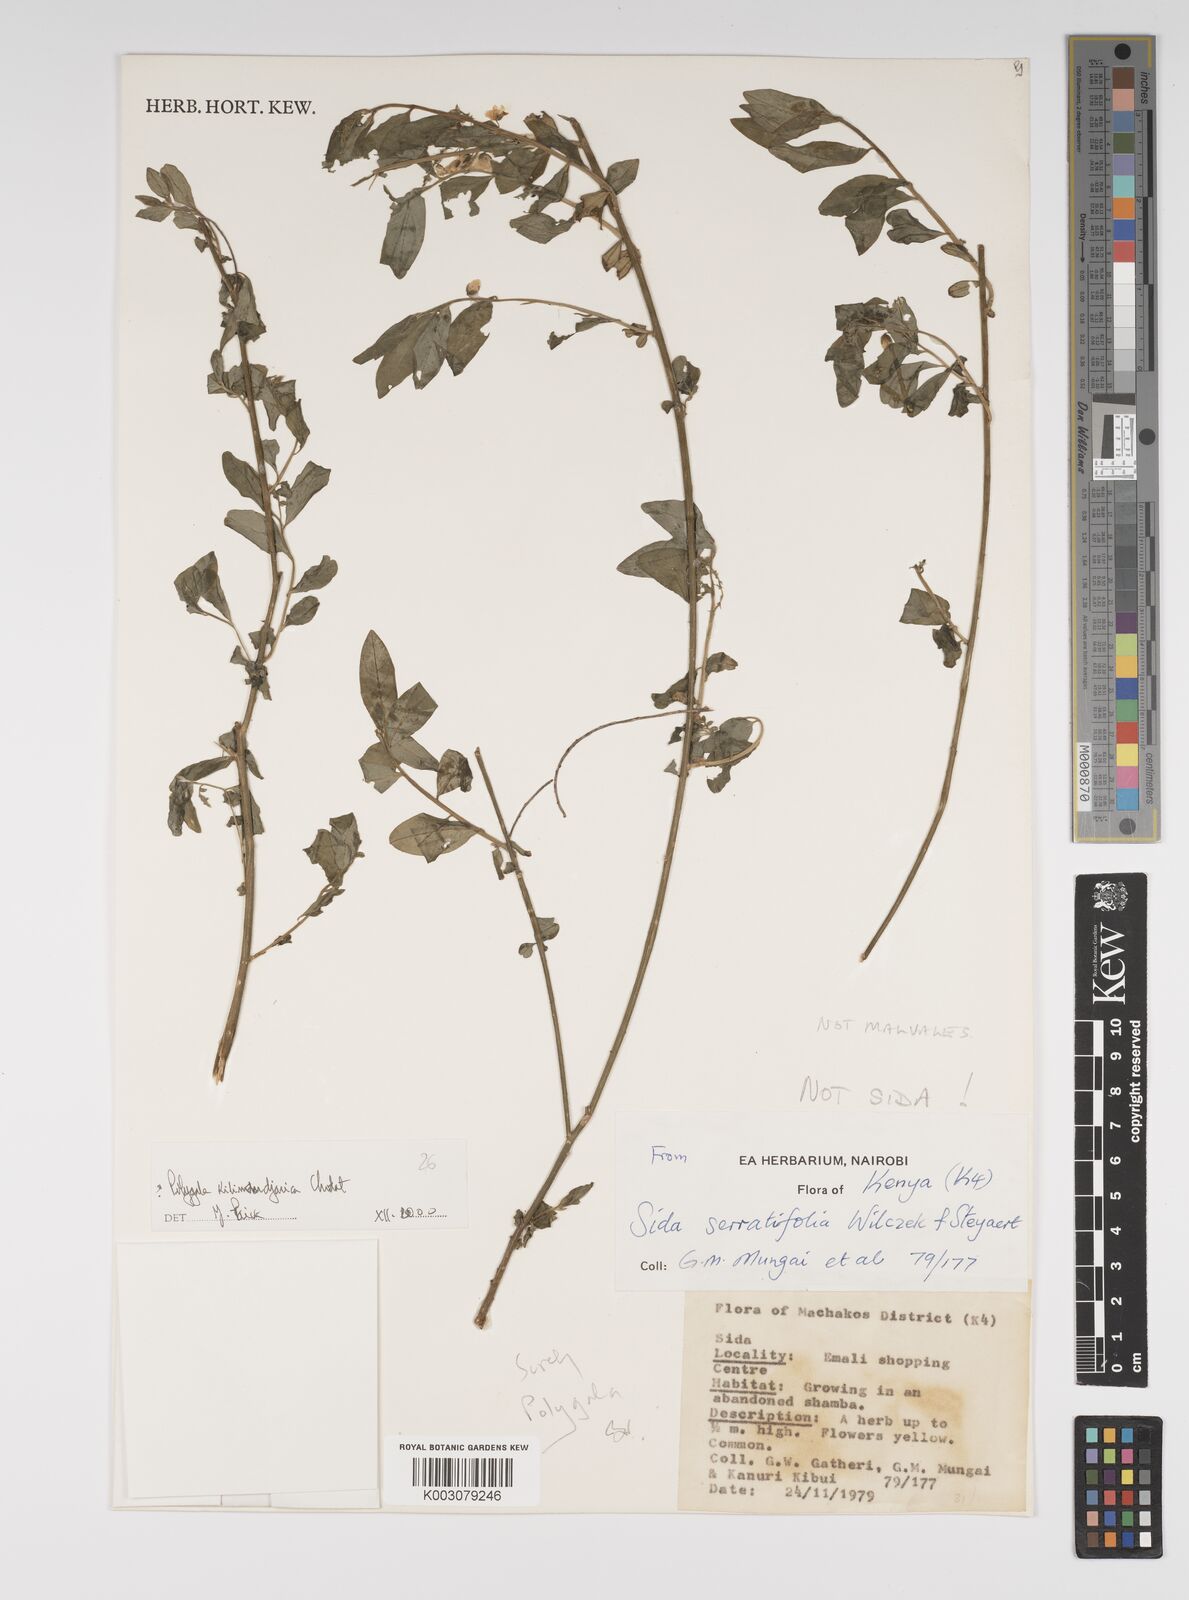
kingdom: Plantae
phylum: Tracheophyta
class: Magnoliopsida
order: Fabales
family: Polygalaceae
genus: Polygala
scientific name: Polygala kilimandjarica
